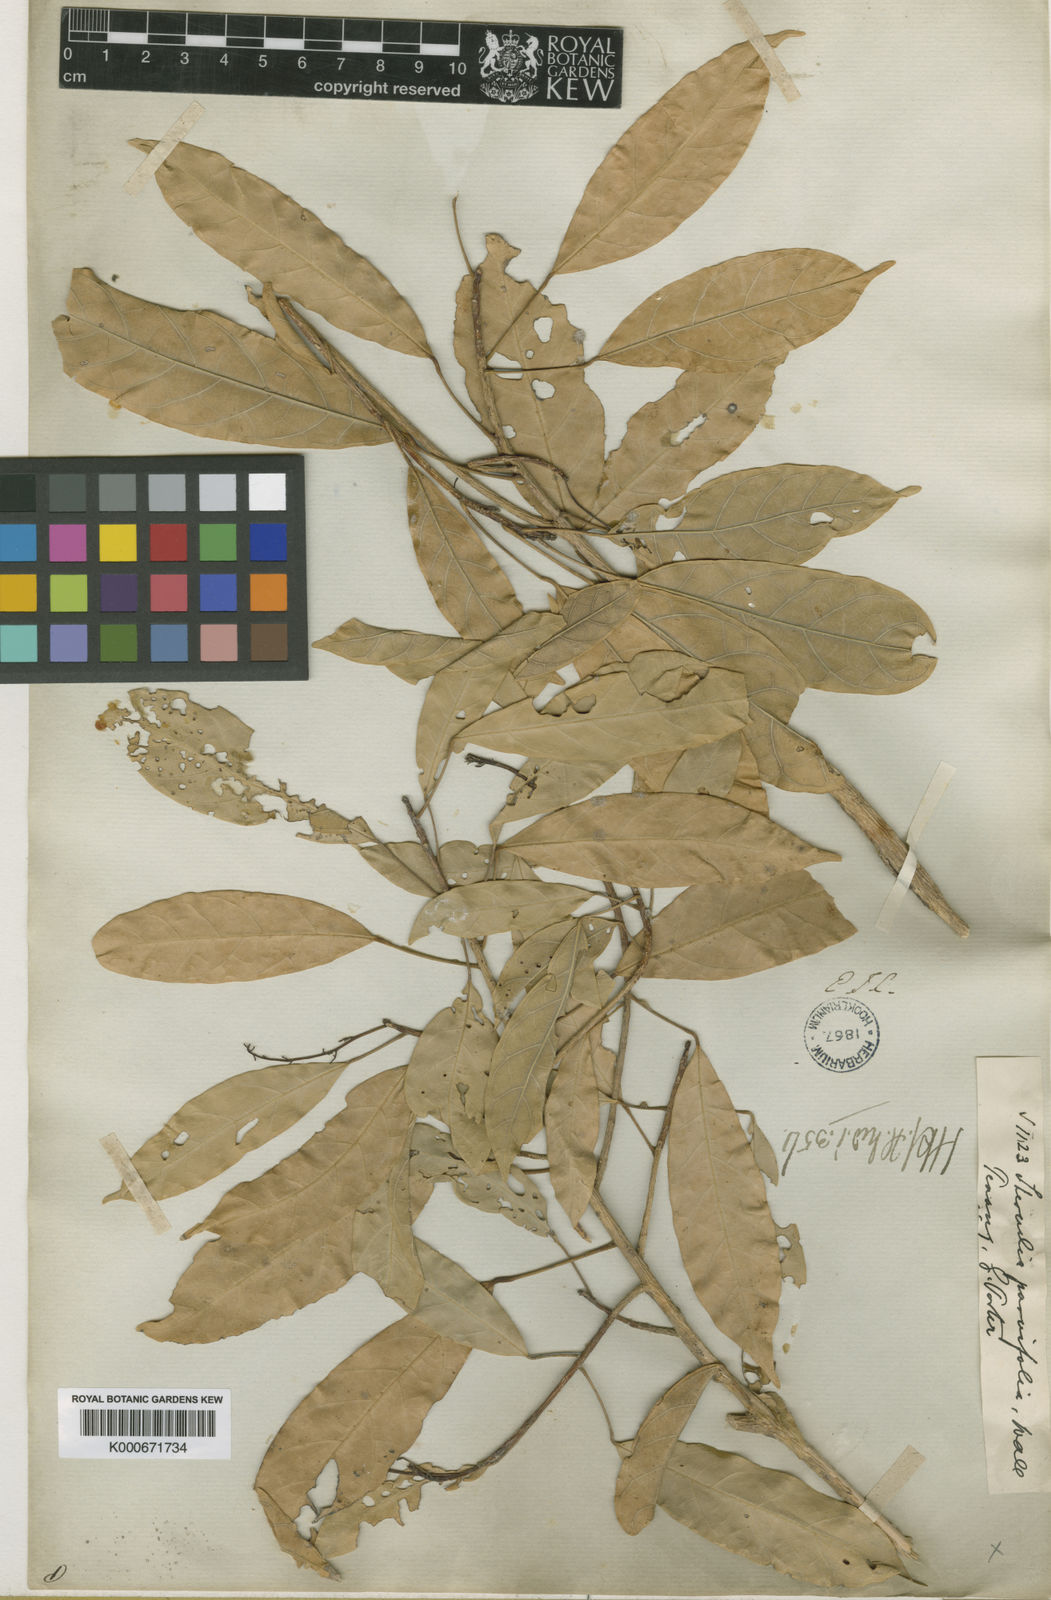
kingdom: Plantae
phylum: Tracheophyta
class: Magnoliopsida
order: Malvales
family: Malvaceae
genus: Sterculia
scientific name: Sterculia
